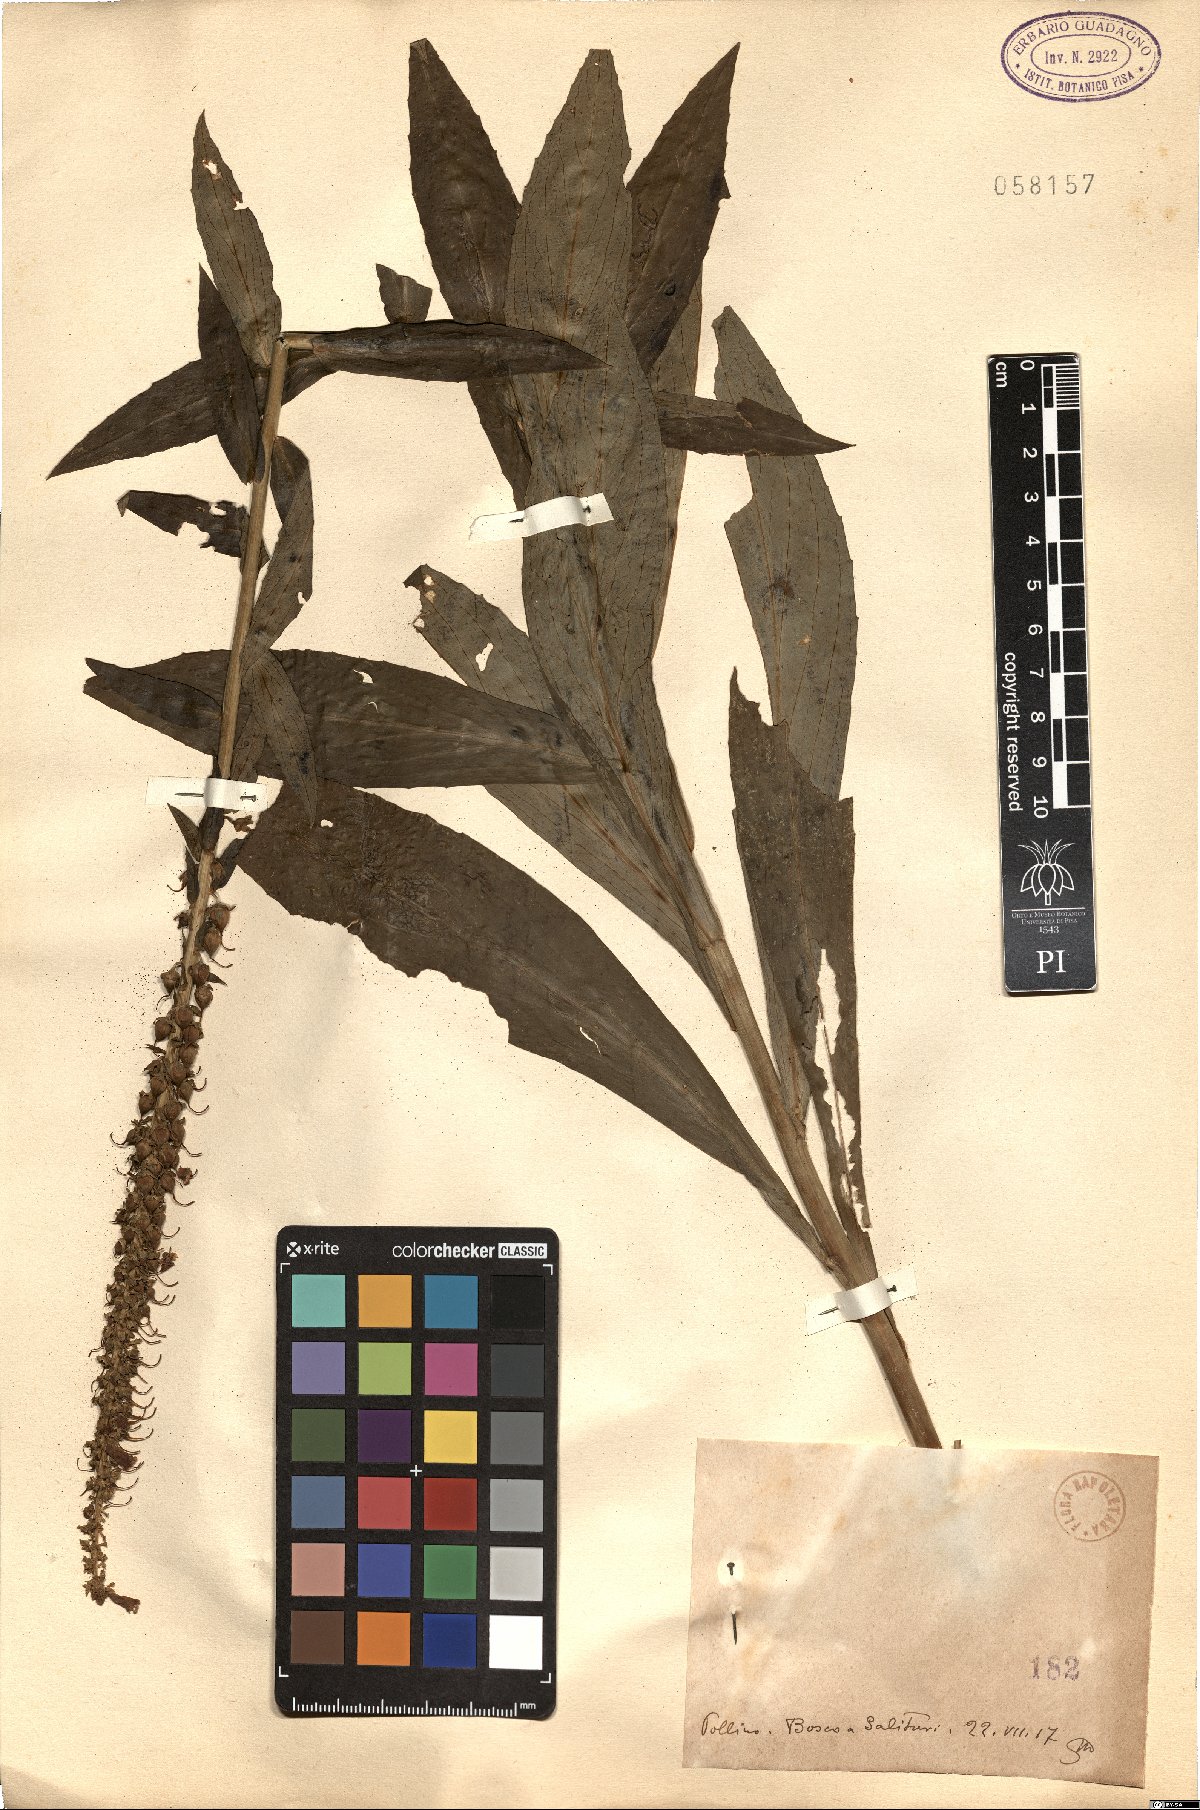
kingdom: Plantae
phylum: Tracheophyta
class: Magnoliopsida
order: Lamiales
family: Plantaginaceae
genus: Digitalis
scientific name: Digitalis
